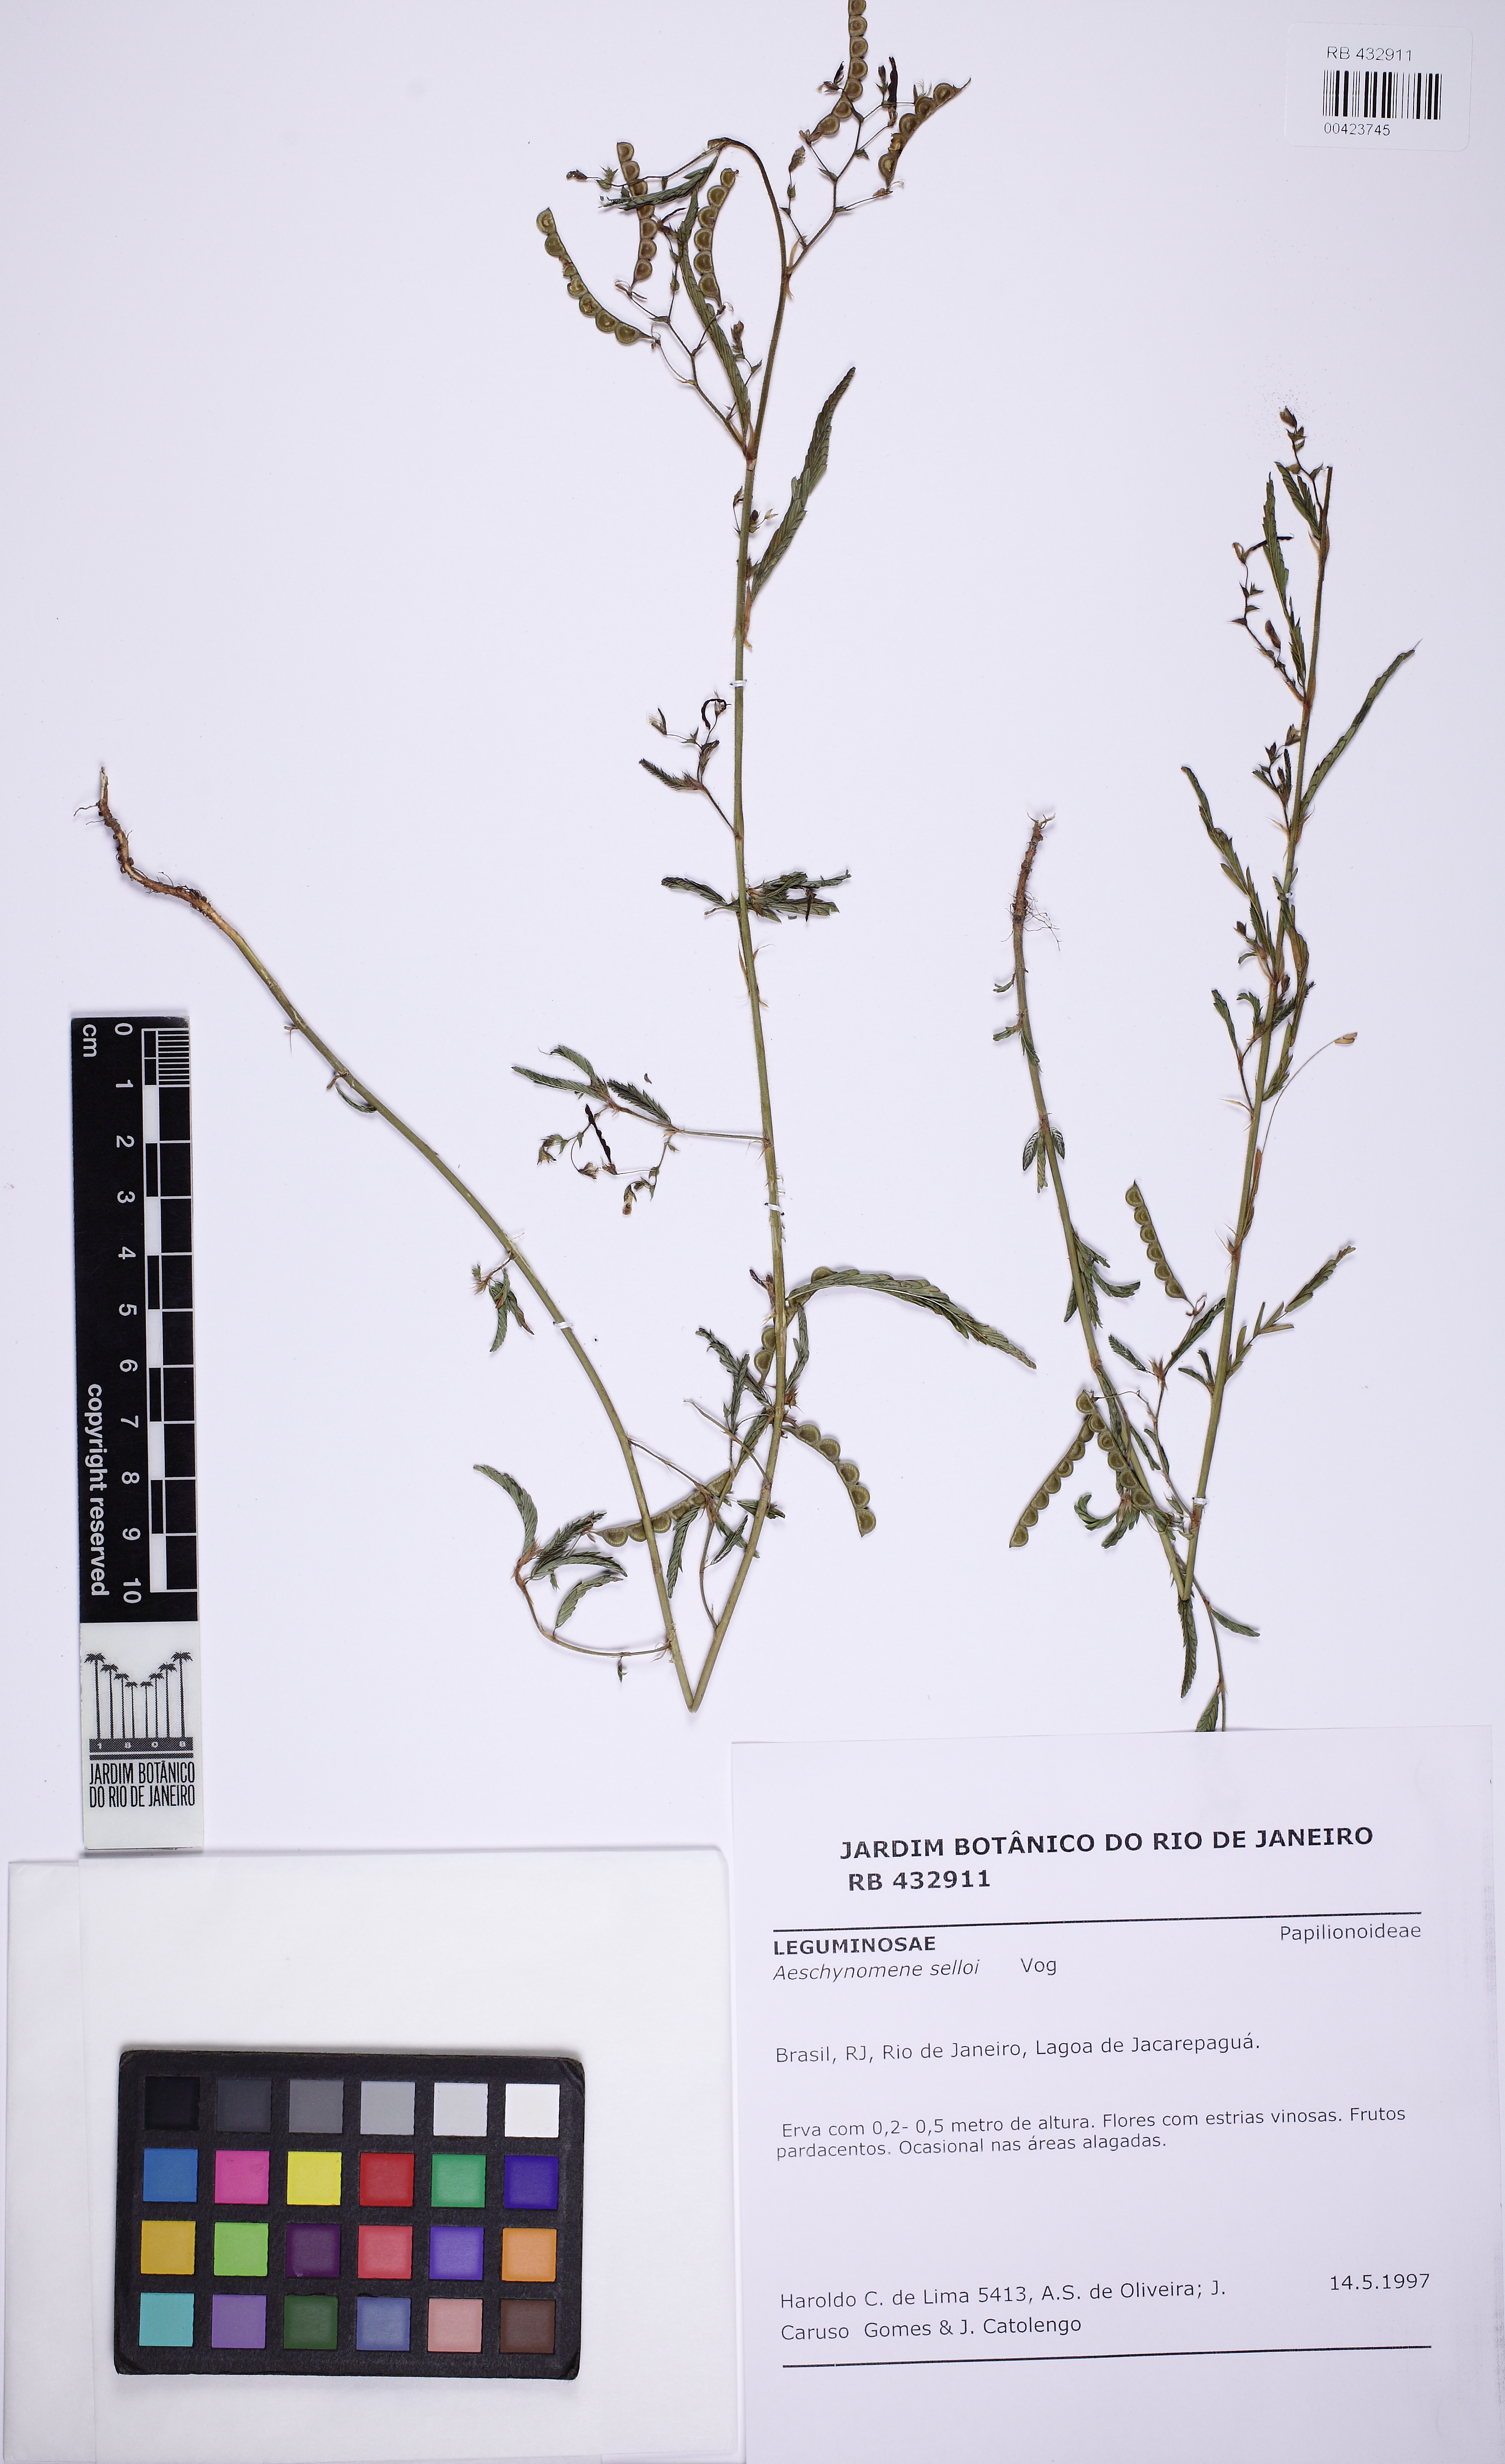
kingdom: Plantae
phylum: Tracheophyta
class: Magnoliopsida
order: Fabales
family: Fabaceae
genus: Aeschynomene
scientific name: Aeschynomene selloi
